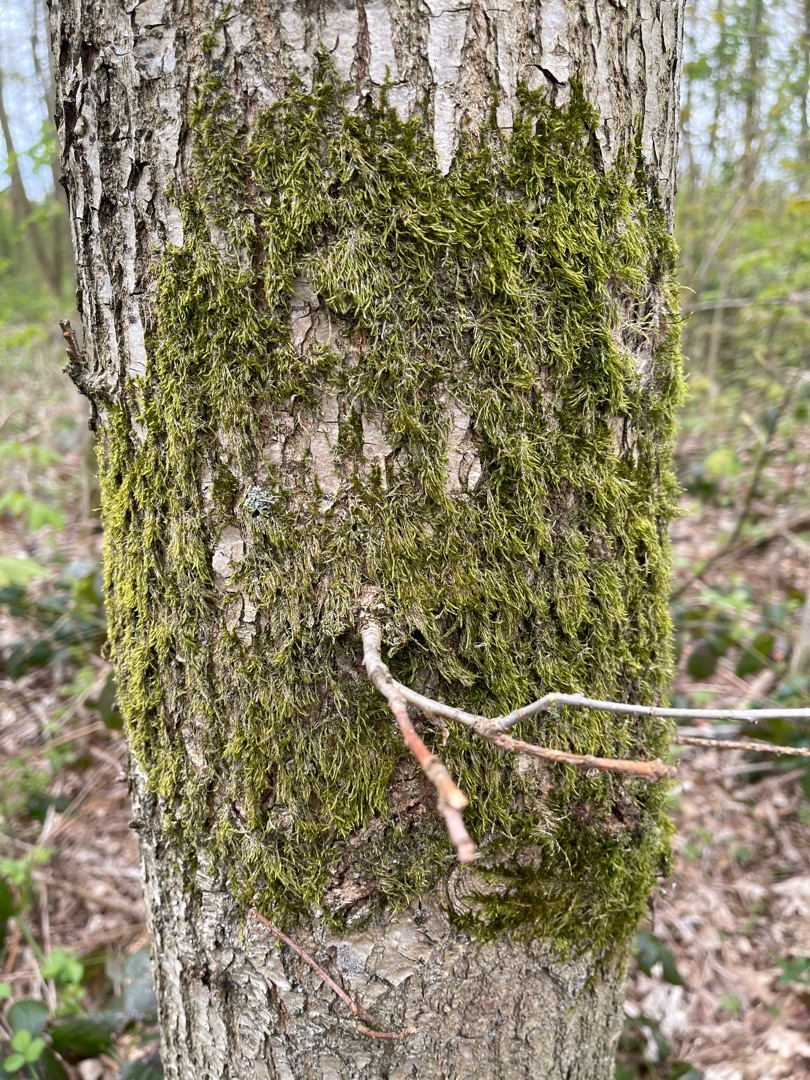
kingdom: Plantae
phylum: Bryophyta
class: Bryopsida
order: Hypnales
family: Hypnaceae
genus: Hypnum
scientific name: Hypnum
